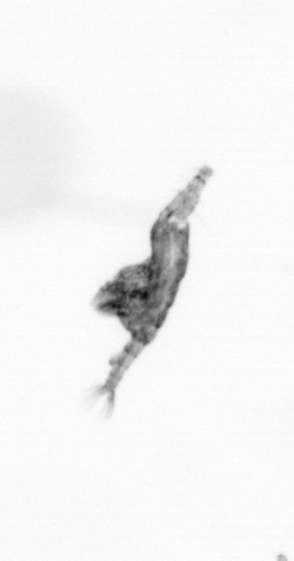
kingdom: Animalia
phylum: Arthropoda
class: Copepoda
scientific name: Copepoda
